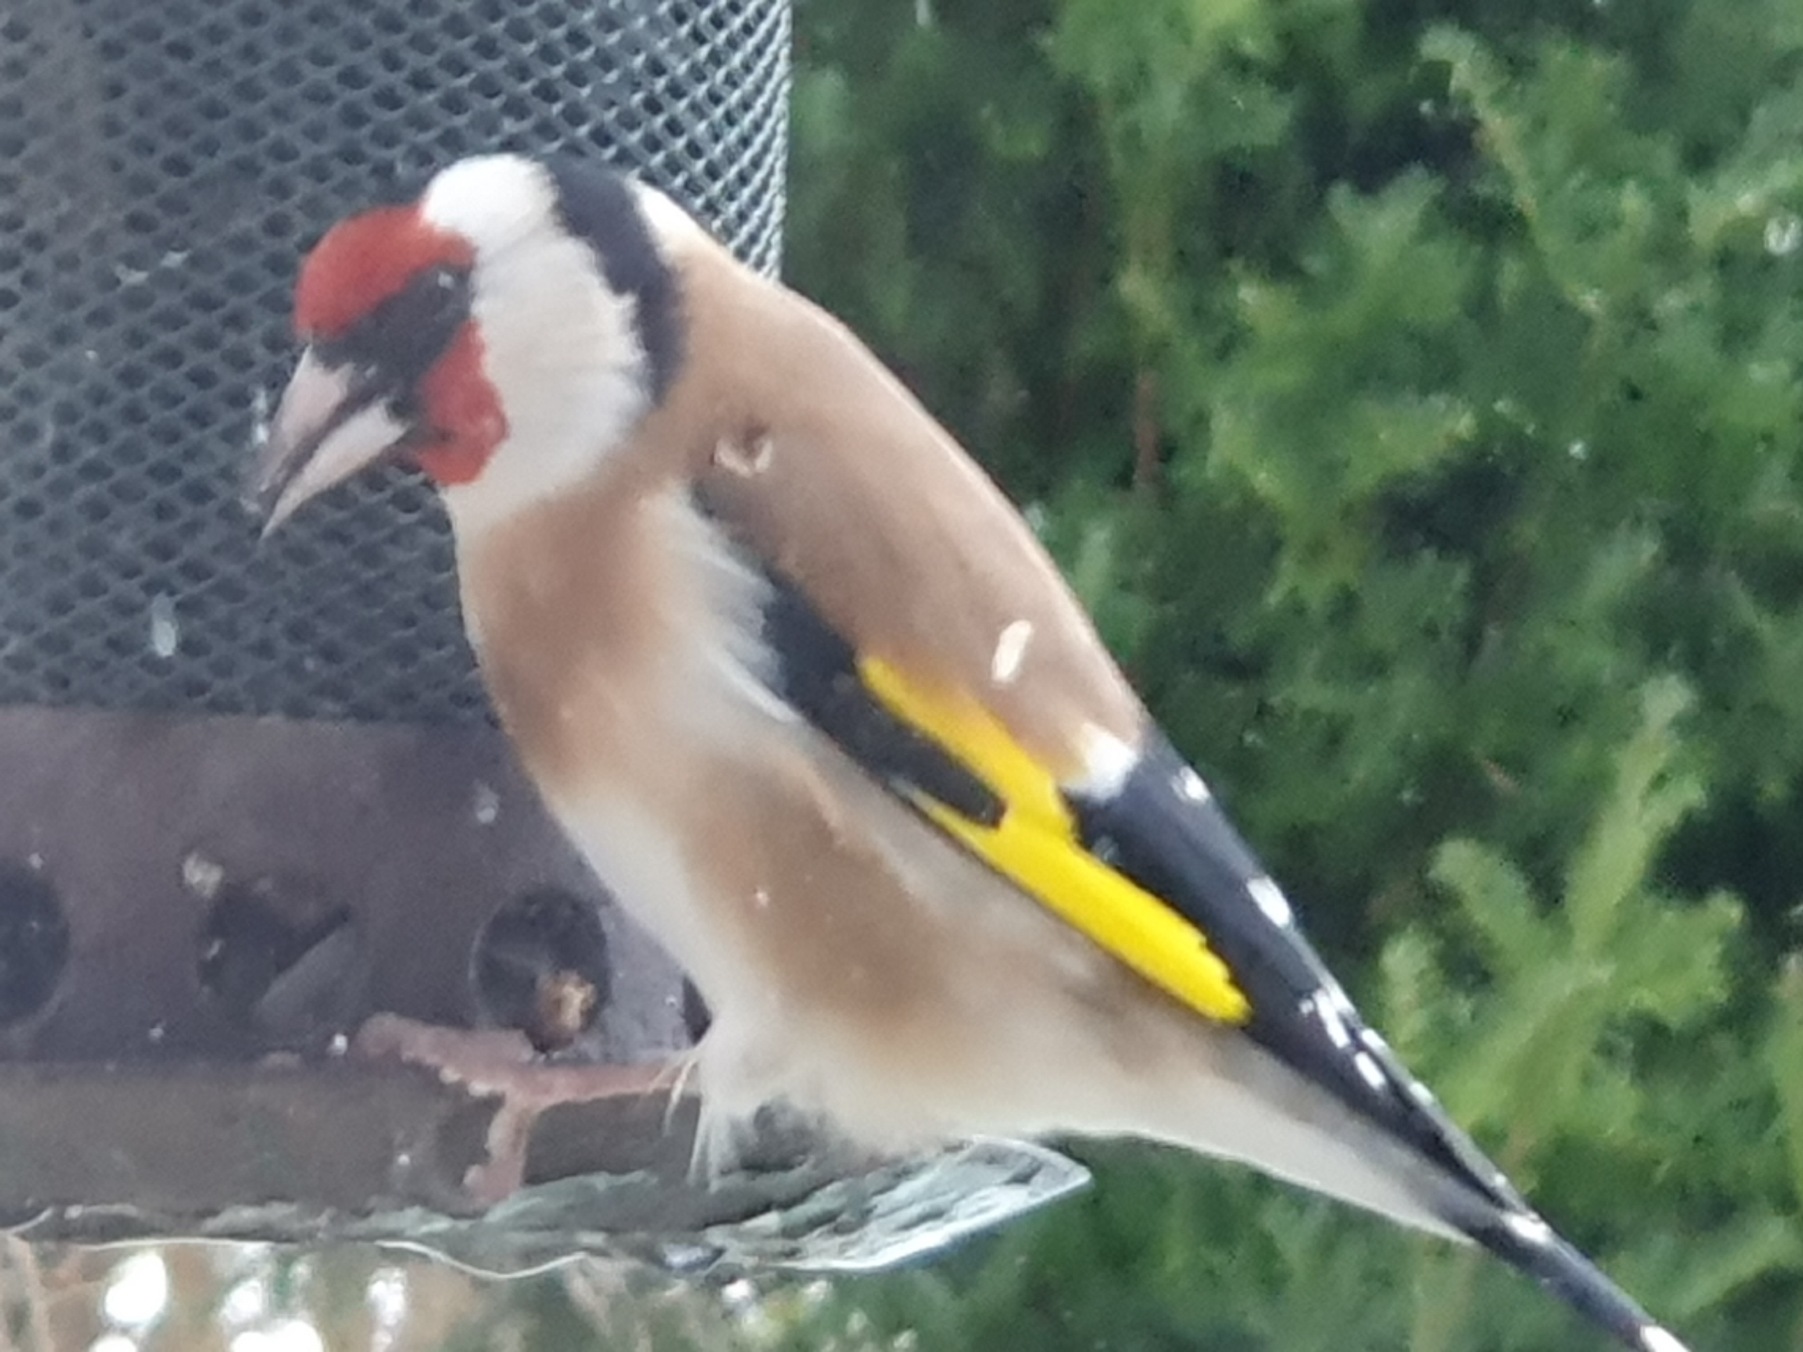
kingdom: Animalia
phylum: Chordata
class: Aves
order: Passeriformes
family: Fringillidae
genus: Carduelis
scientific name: Carduelis carduelis
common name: Stillits
